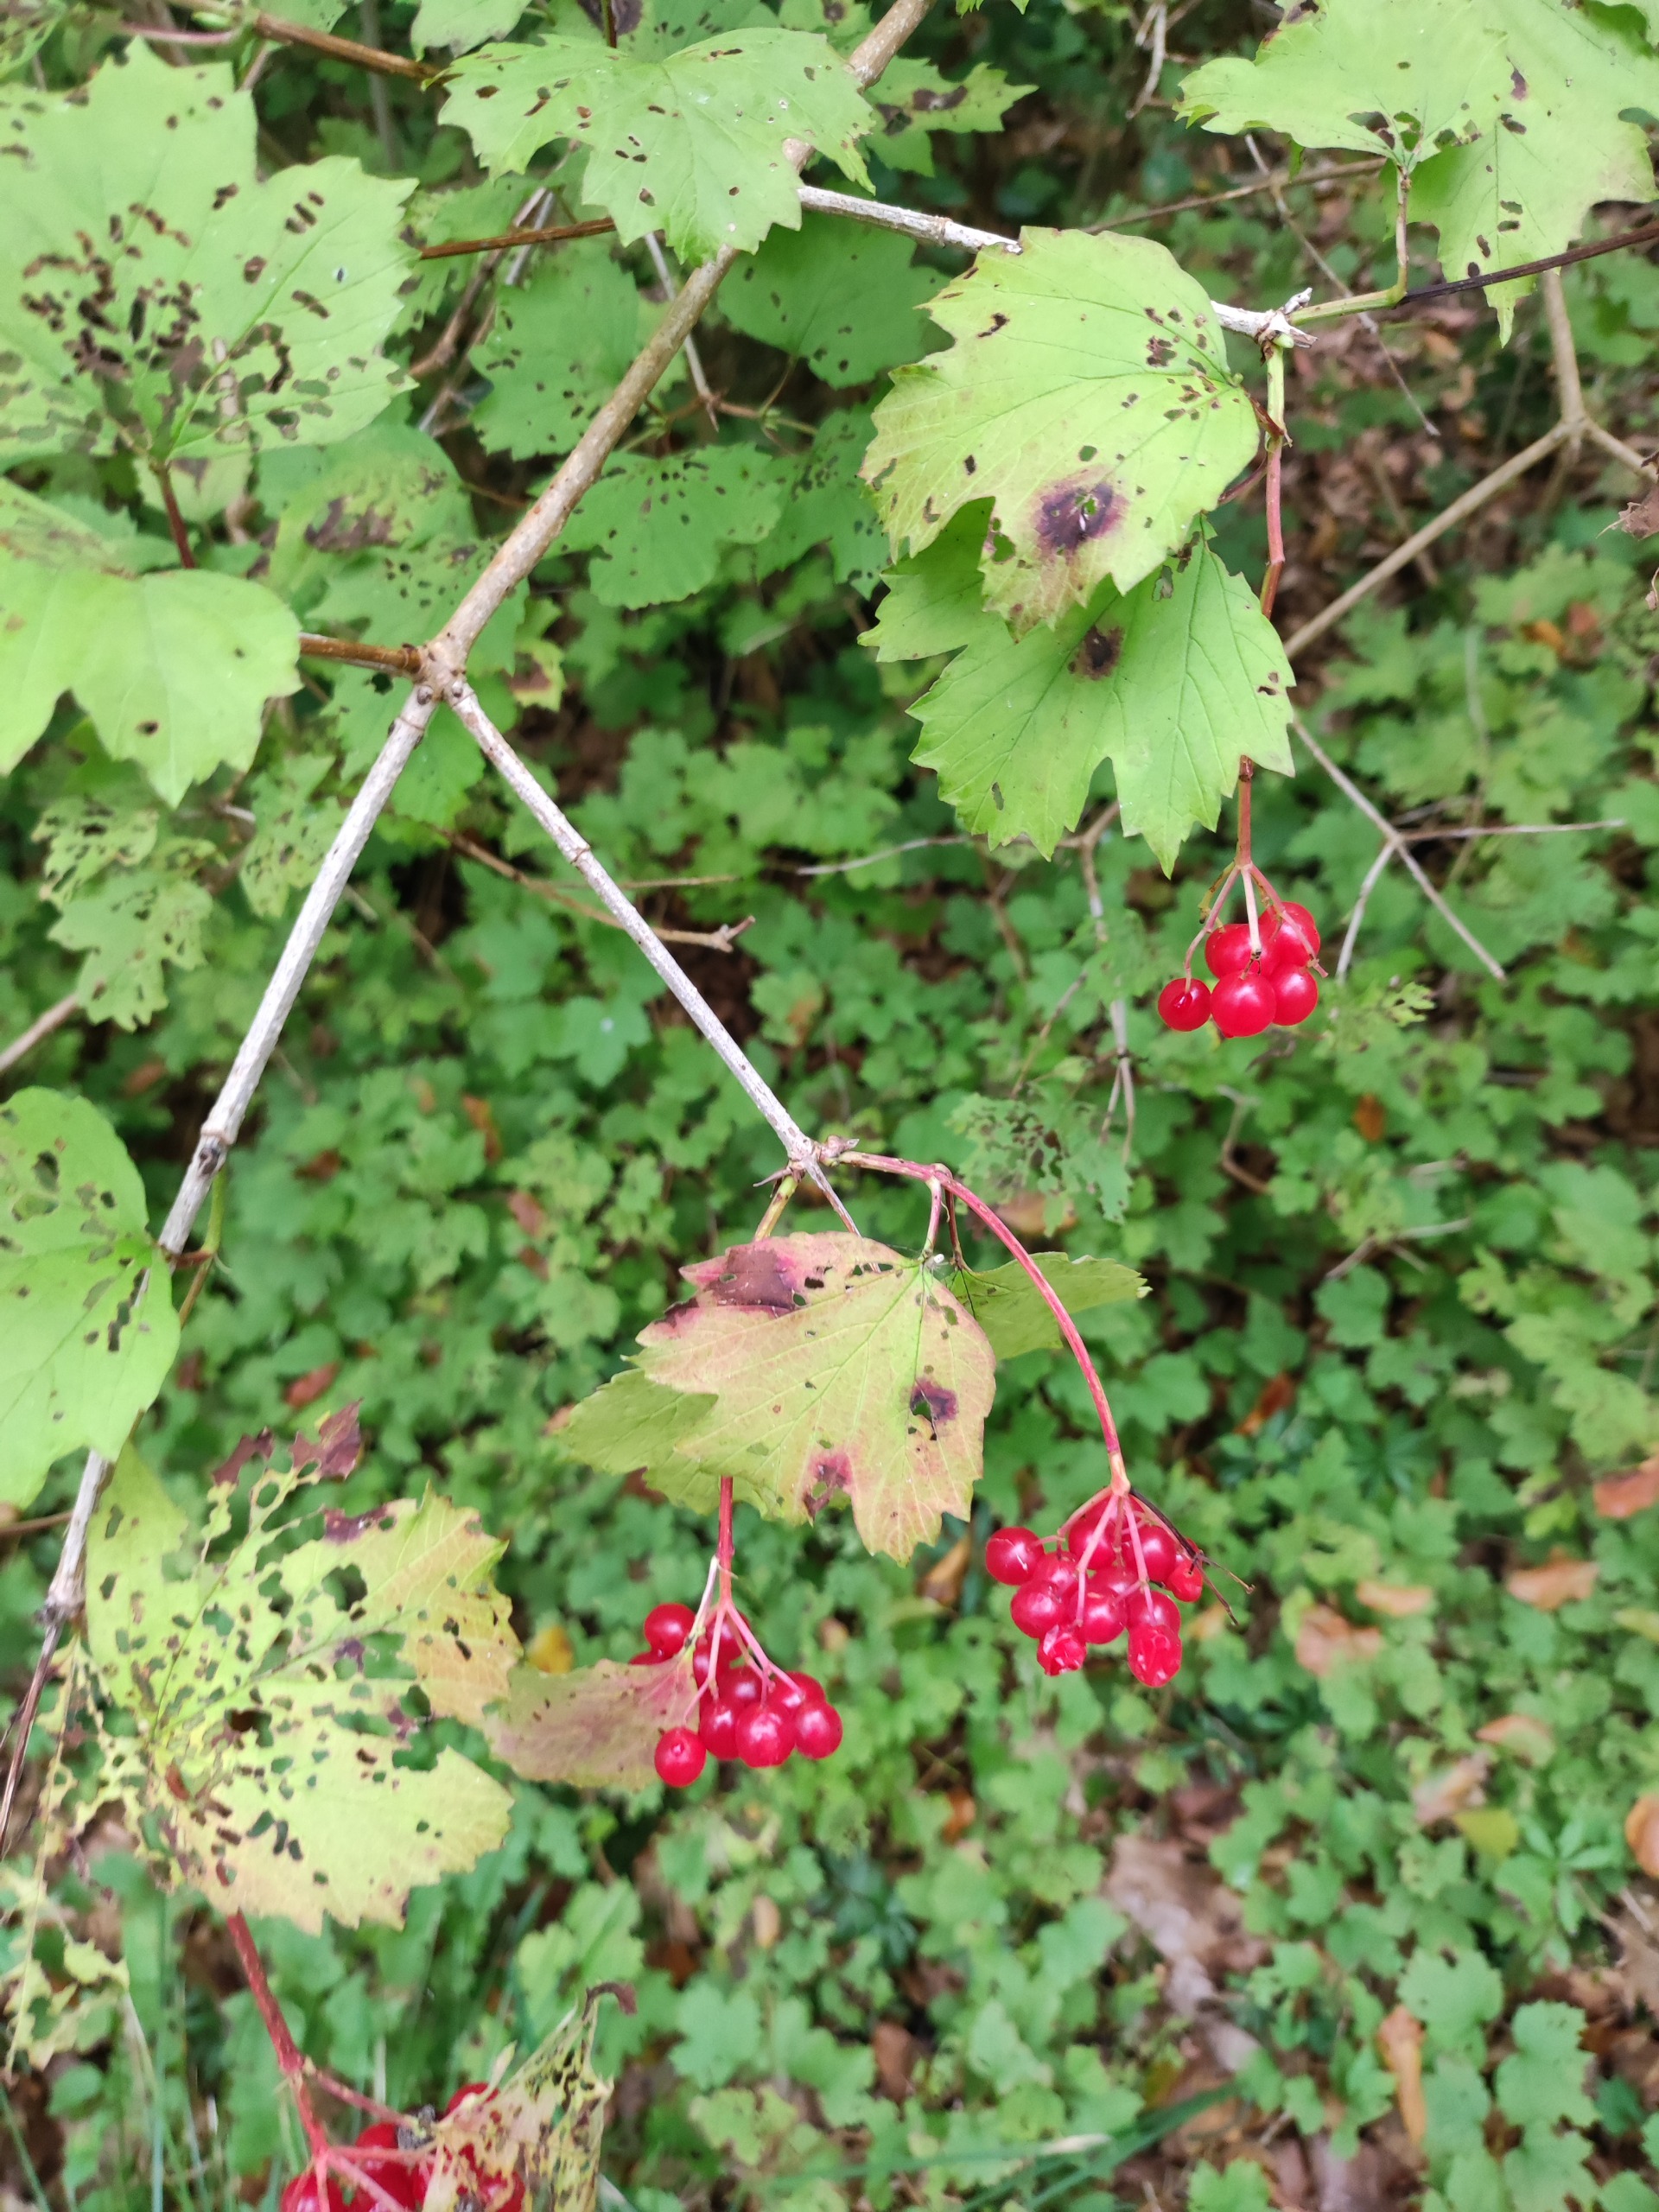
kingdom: Plantae
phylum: Tracheophyta
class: Magnoliopsida
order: Dipsacales
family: Viburnaceae
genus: Viburnum
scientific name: Viburnum opulus
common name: Kvalkved
